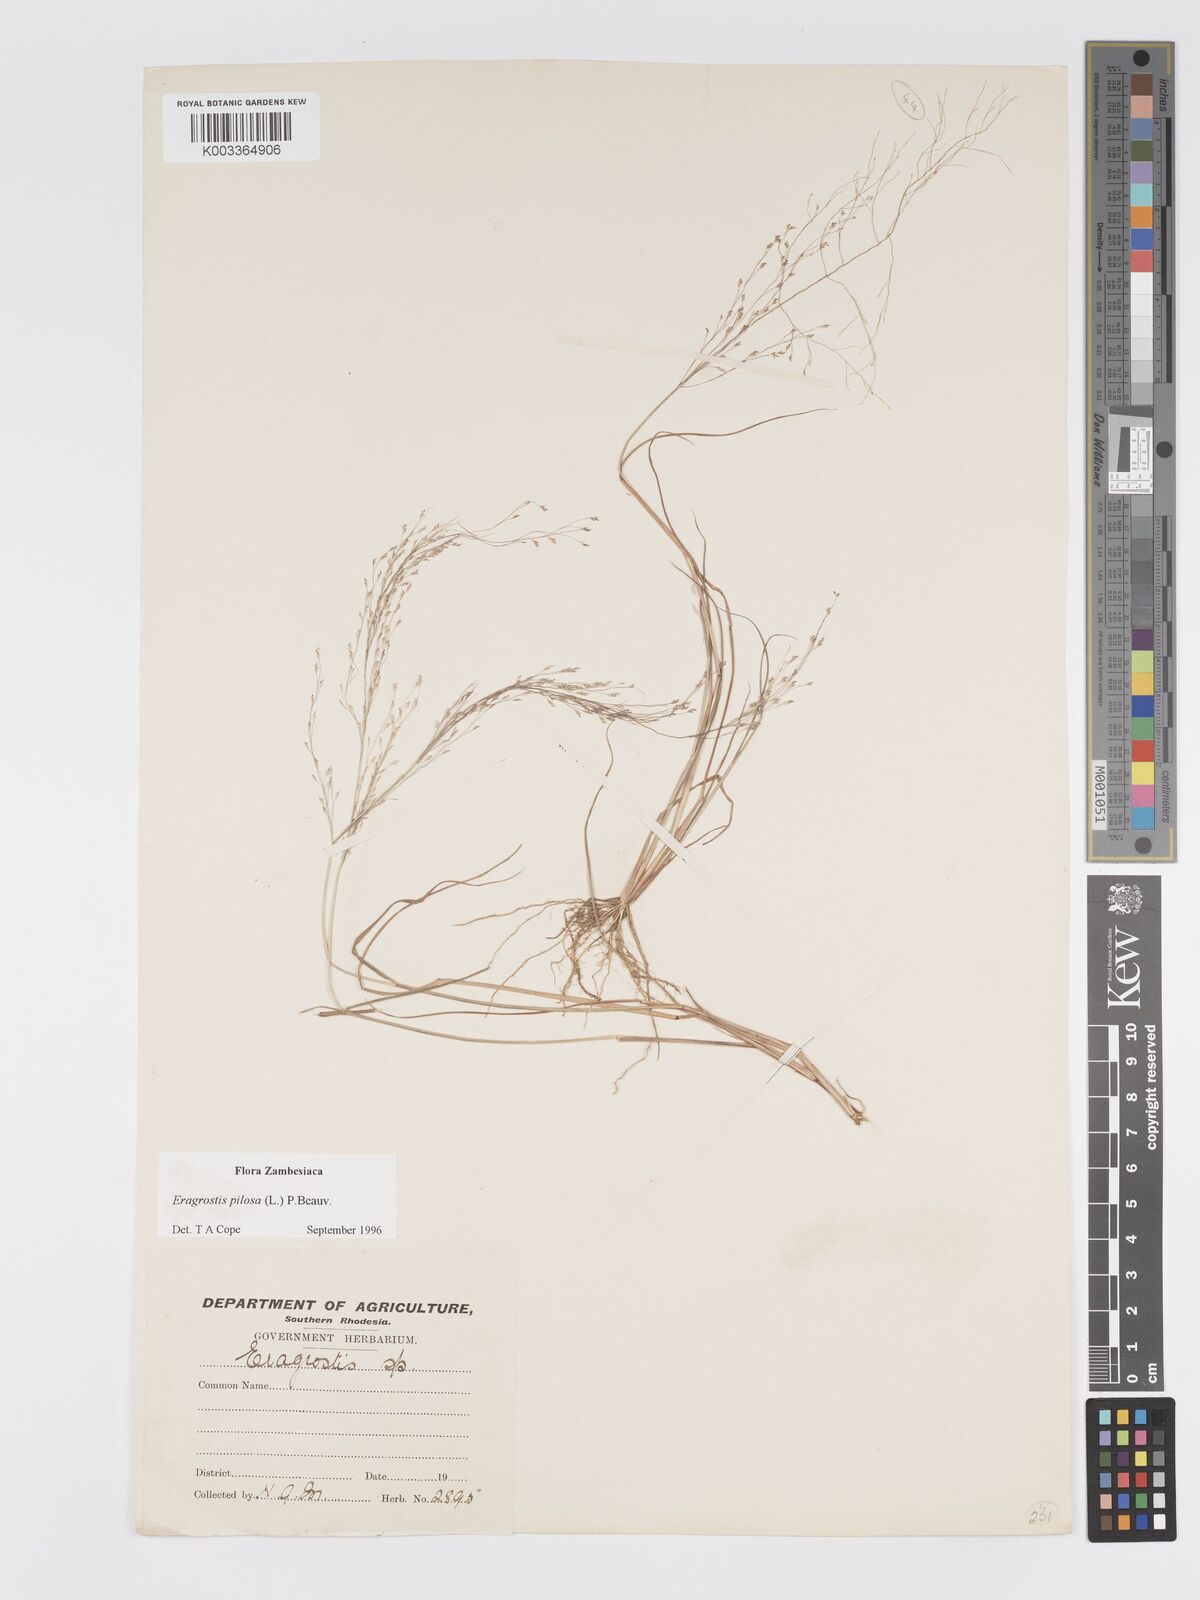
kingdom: Plantae
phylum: Tracheophyta
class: Liliopsida
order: Poales
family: Poaceae
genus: Eragrostis
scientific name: Eragrostis pilosa
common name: Indian lovegrass
